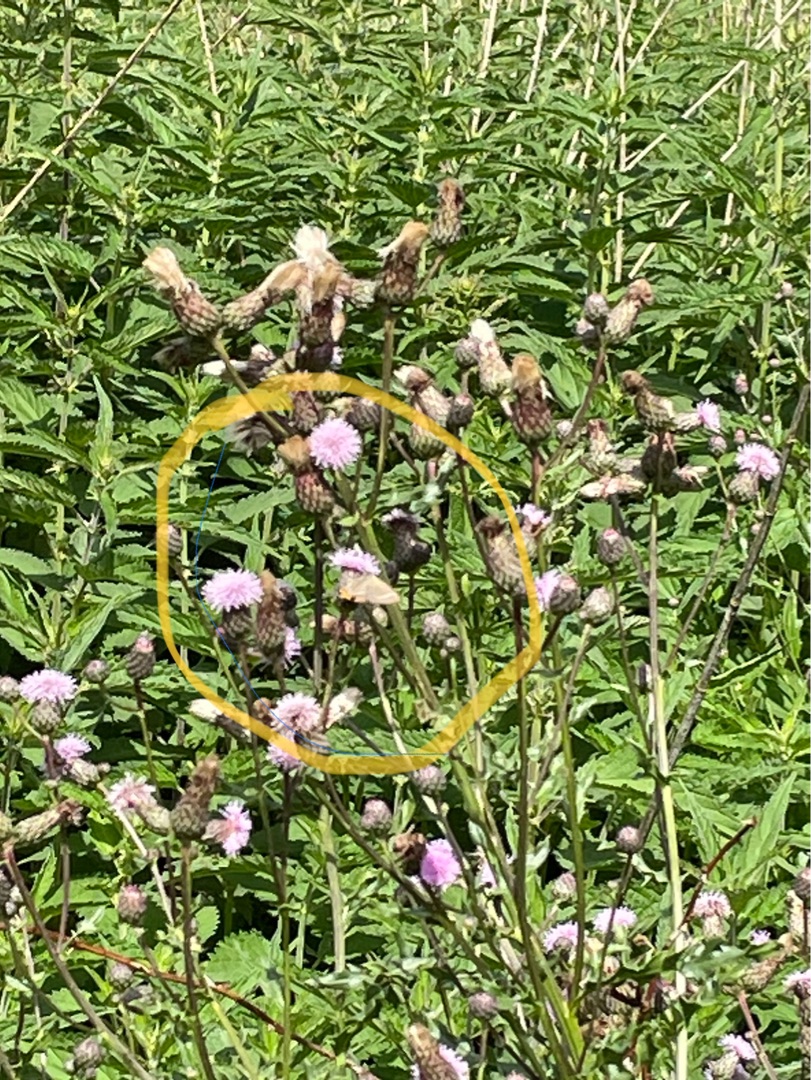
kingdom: Animalia
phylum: Arthropoda
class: Insecta
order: Lepidoptera
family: Lycaenidae
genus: Satyrium
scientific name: Satyrium w-album
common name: Det hvide W
